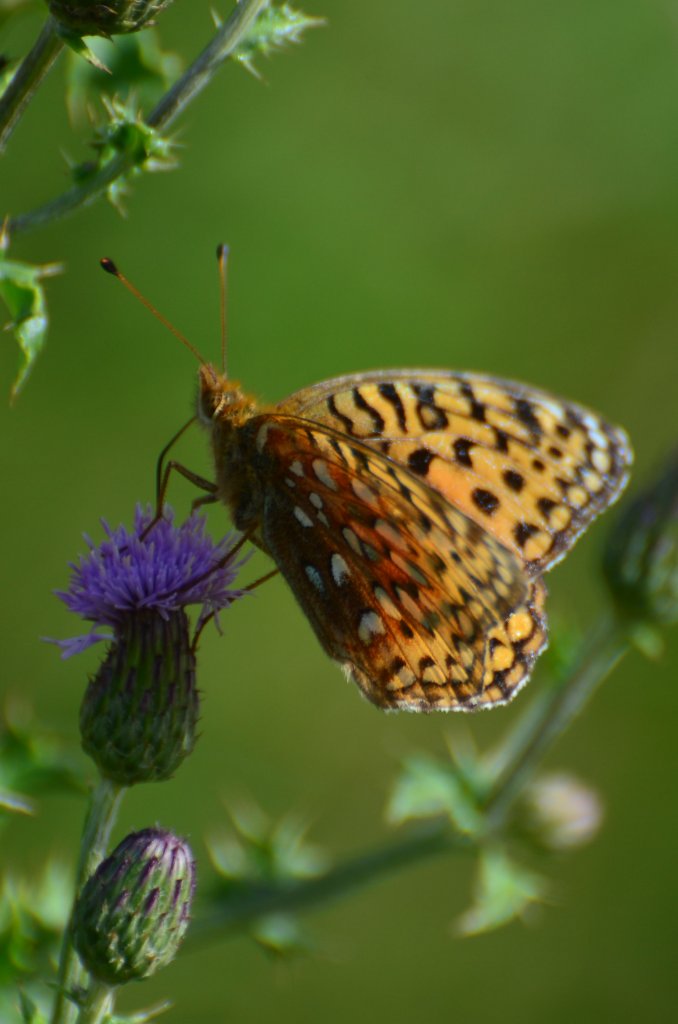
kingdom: Animalia
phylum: Arthropoda
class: Insecta
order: Lepidoptera
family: Nymphalidae
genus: Speyeria
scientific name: Speyeria aphrodite
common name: Aphrodite Fritillary
